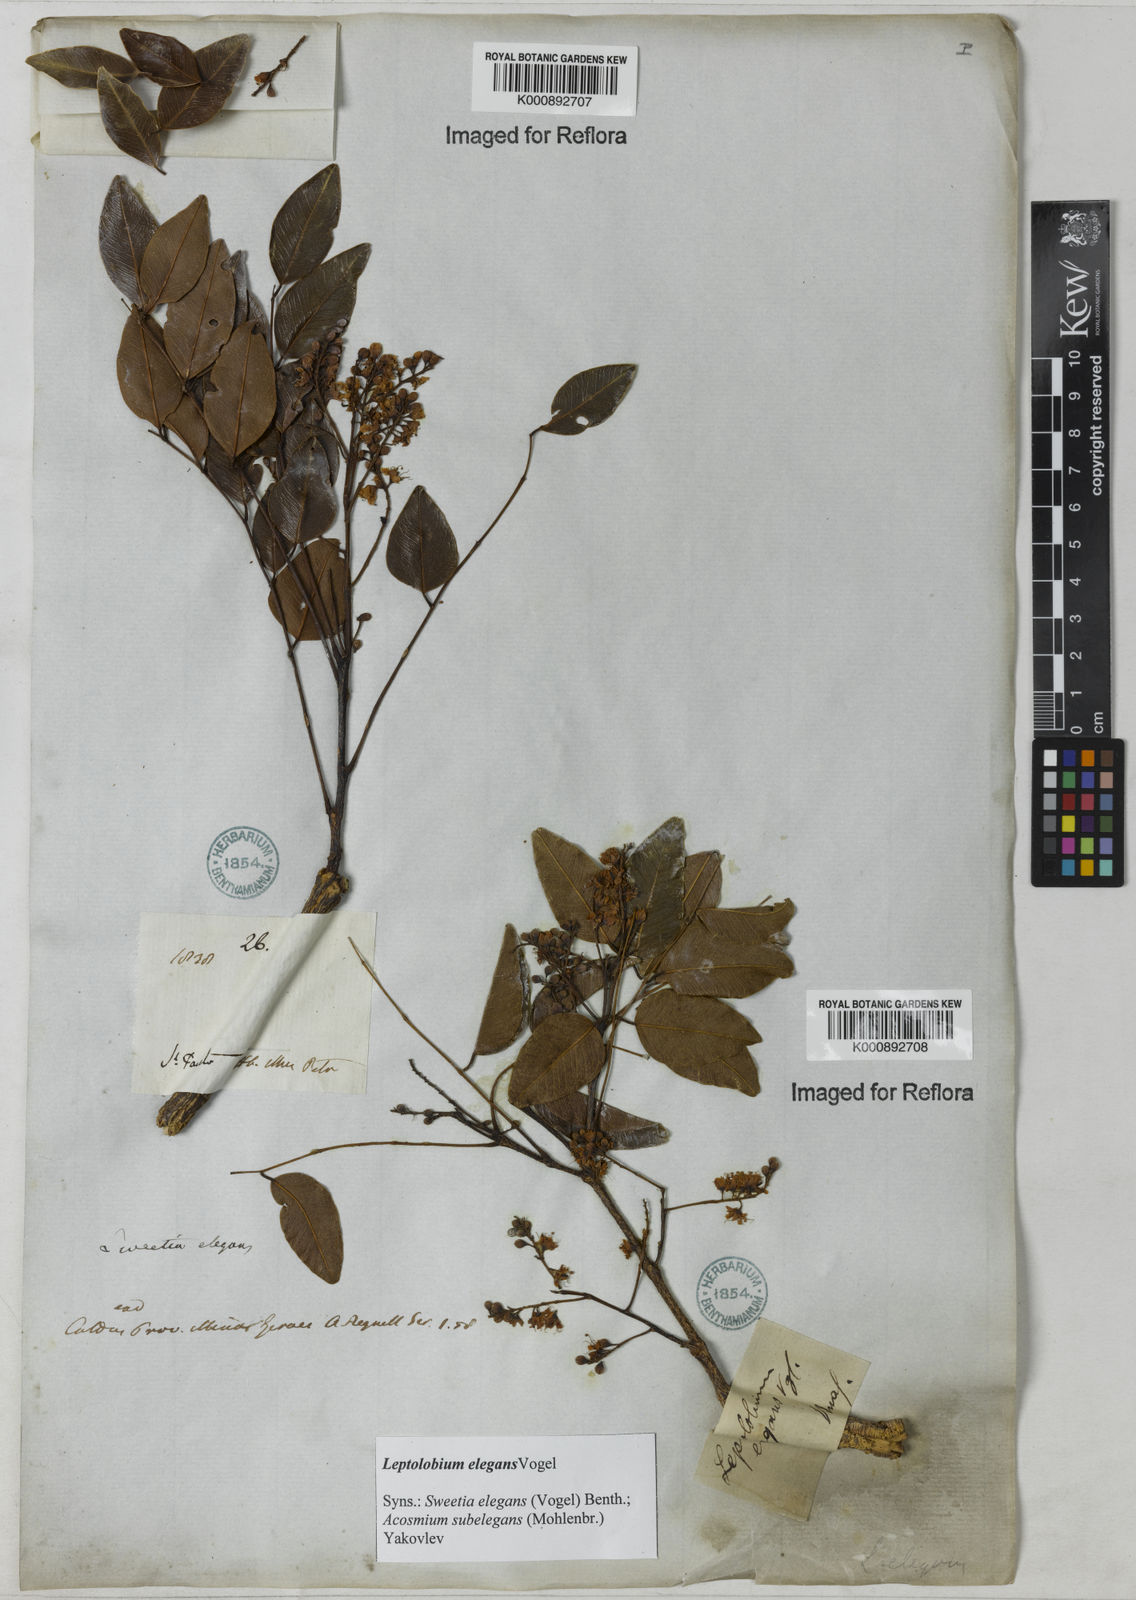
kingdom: Plantae
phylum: Tracheophyta
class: Magnoliopsida
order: Fabales
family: Fabaceae
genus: Leptolobium
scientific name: Leptolobium elegans
